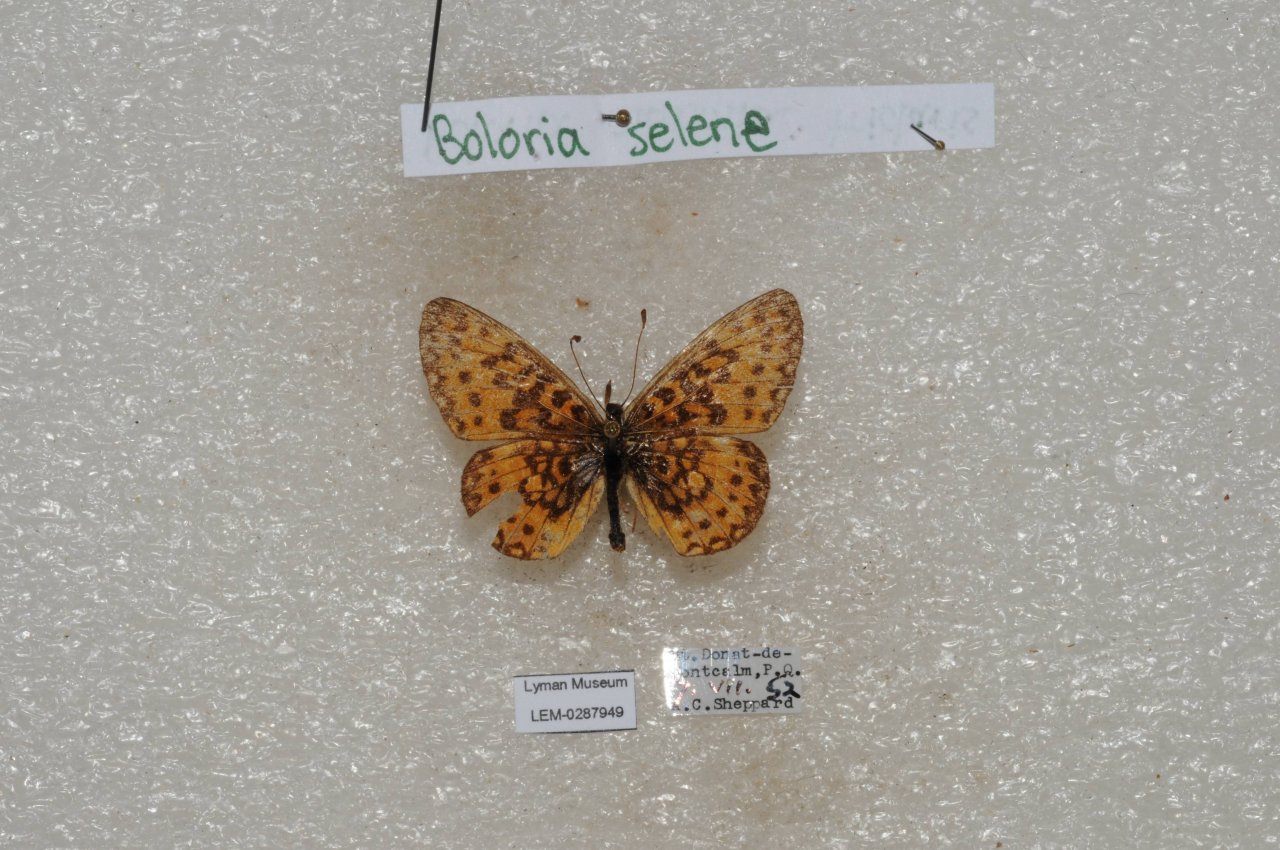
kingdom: Animalia
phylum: Arthropoda
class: Insecta
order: Lepidoptera
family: Nymphalidae
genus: Boloria
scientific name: Boloria selene
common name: Silver-bordered Fritillary
